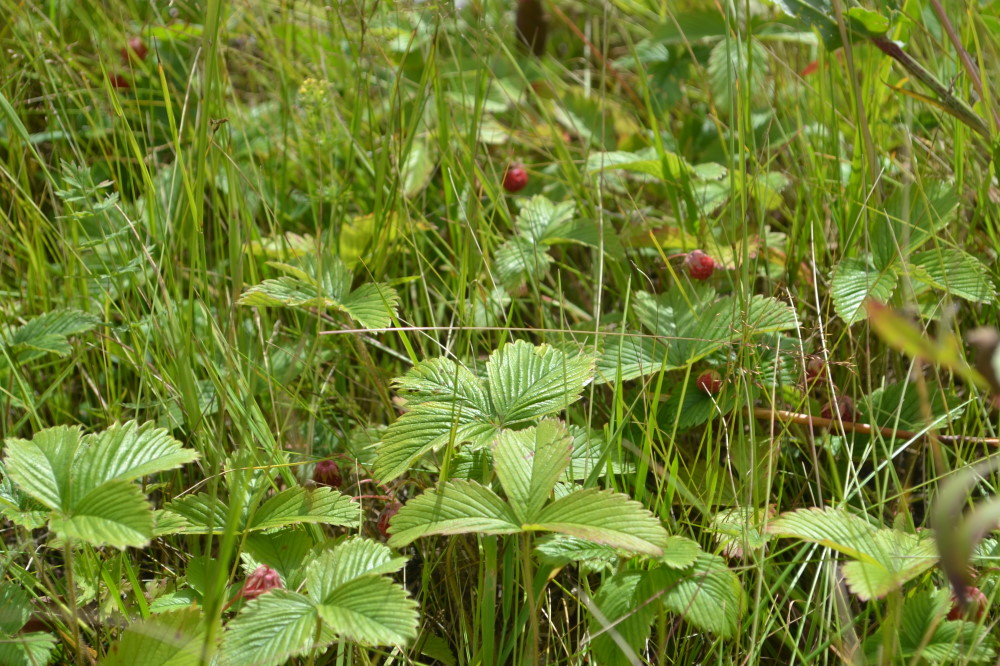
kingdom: Plantae
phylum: Tracheophyta
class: Magnoliopsida
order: Rosales
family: Rosaceae
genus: Fragaria
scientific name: Fragaria viridis
